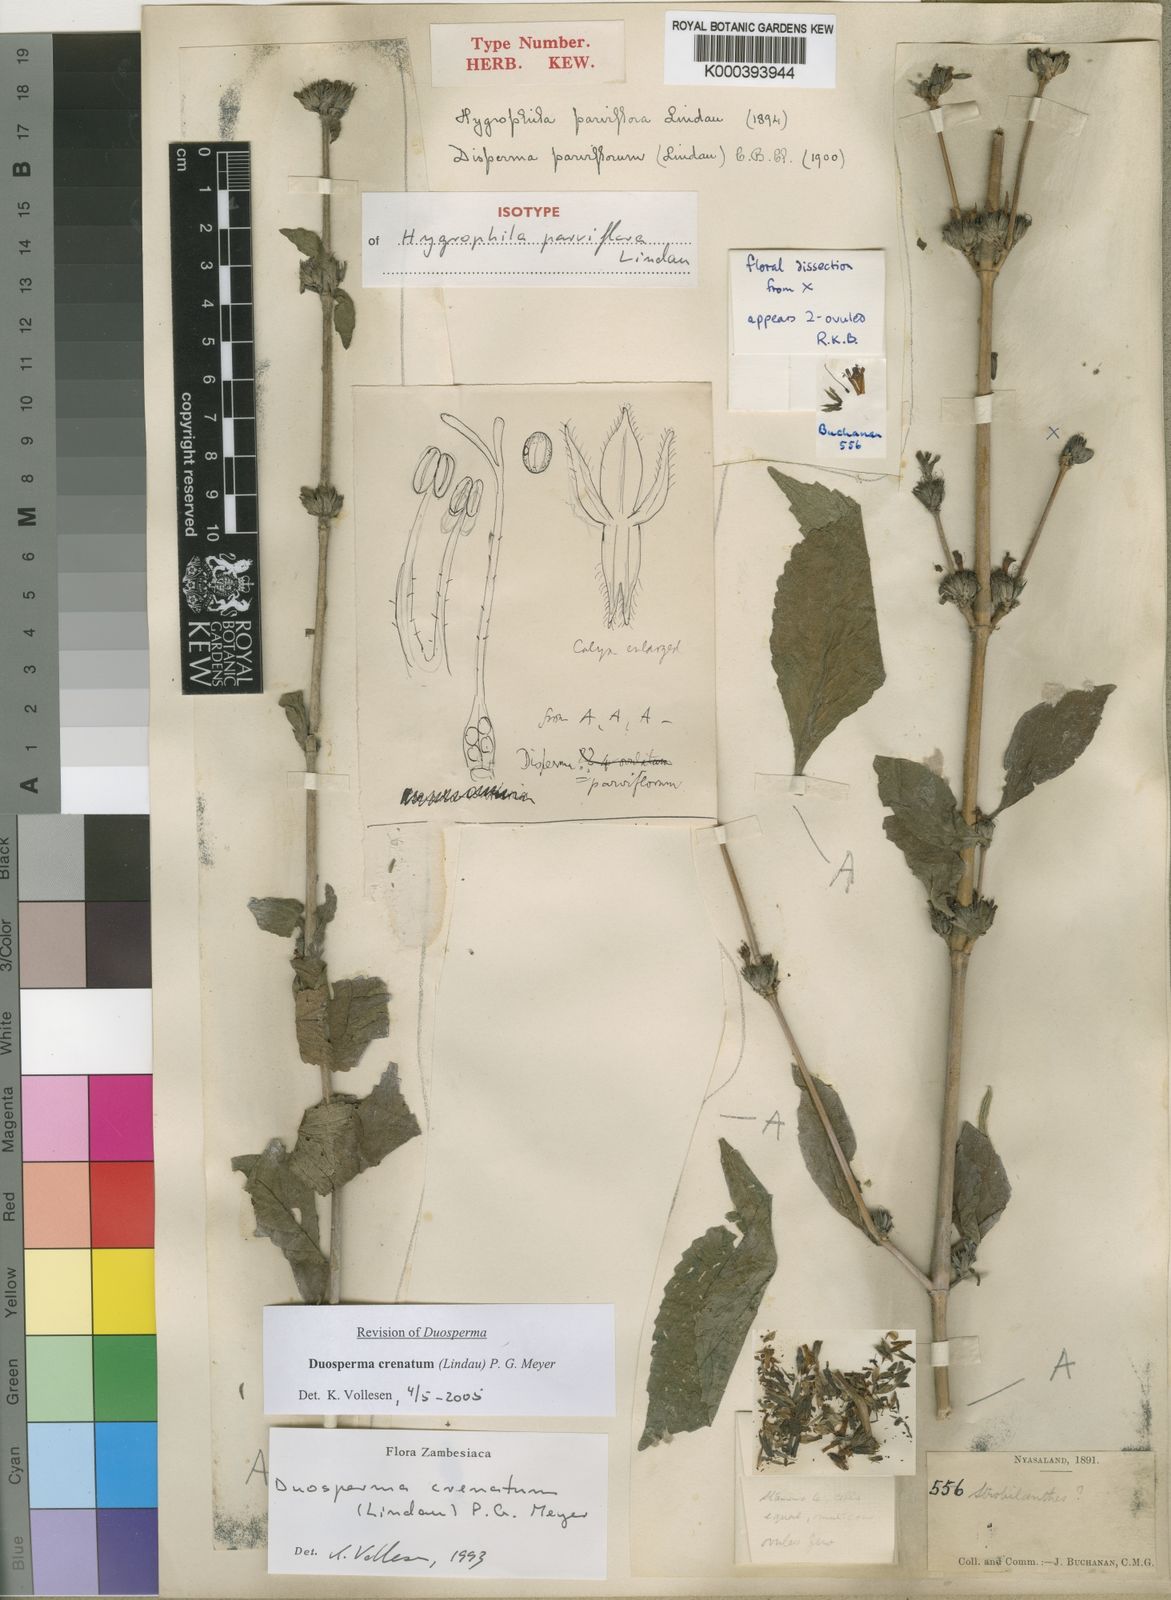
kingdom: Plantae
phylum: Tracheophyta
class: Magnoliopsida
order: Lamiales
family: Acanthaceae
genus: Duosperma
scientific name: Duosperma crenatum
